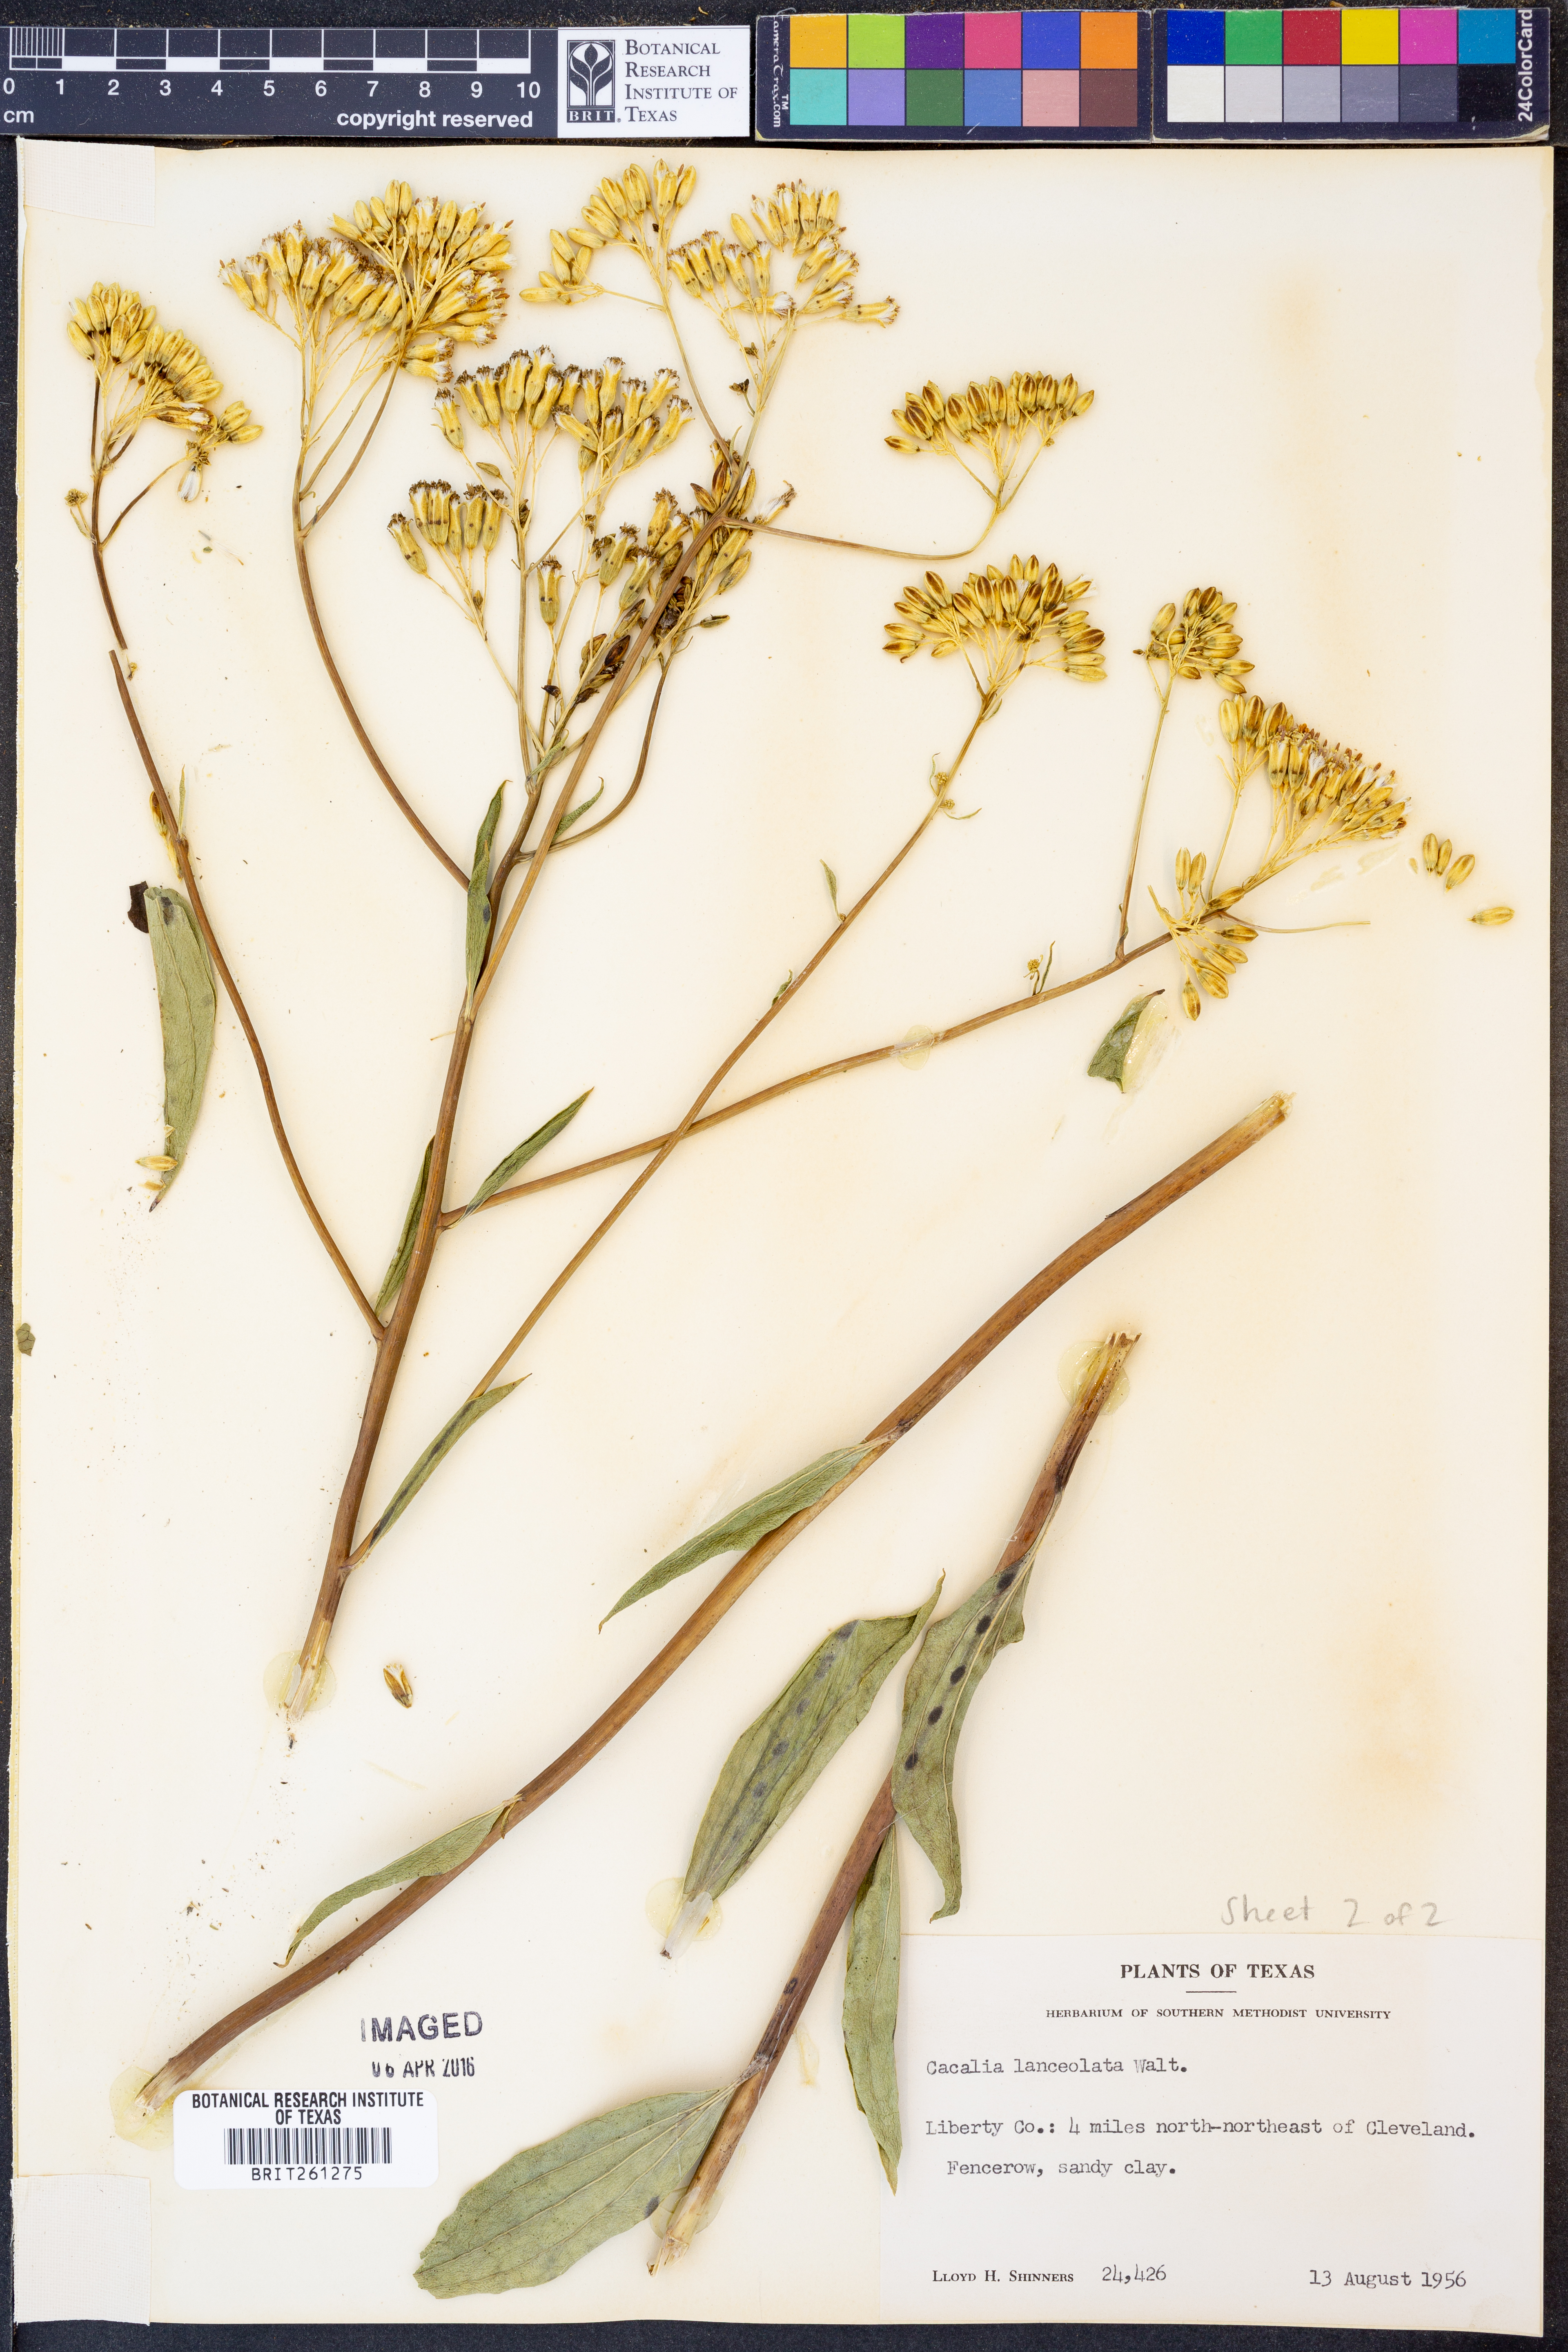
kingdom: Plantae
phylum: Tracheophyta
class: Magnoliopsida
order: Asterales
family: Asteraceae
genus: Arnoglossum
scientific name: Arnoglossum ovatum
